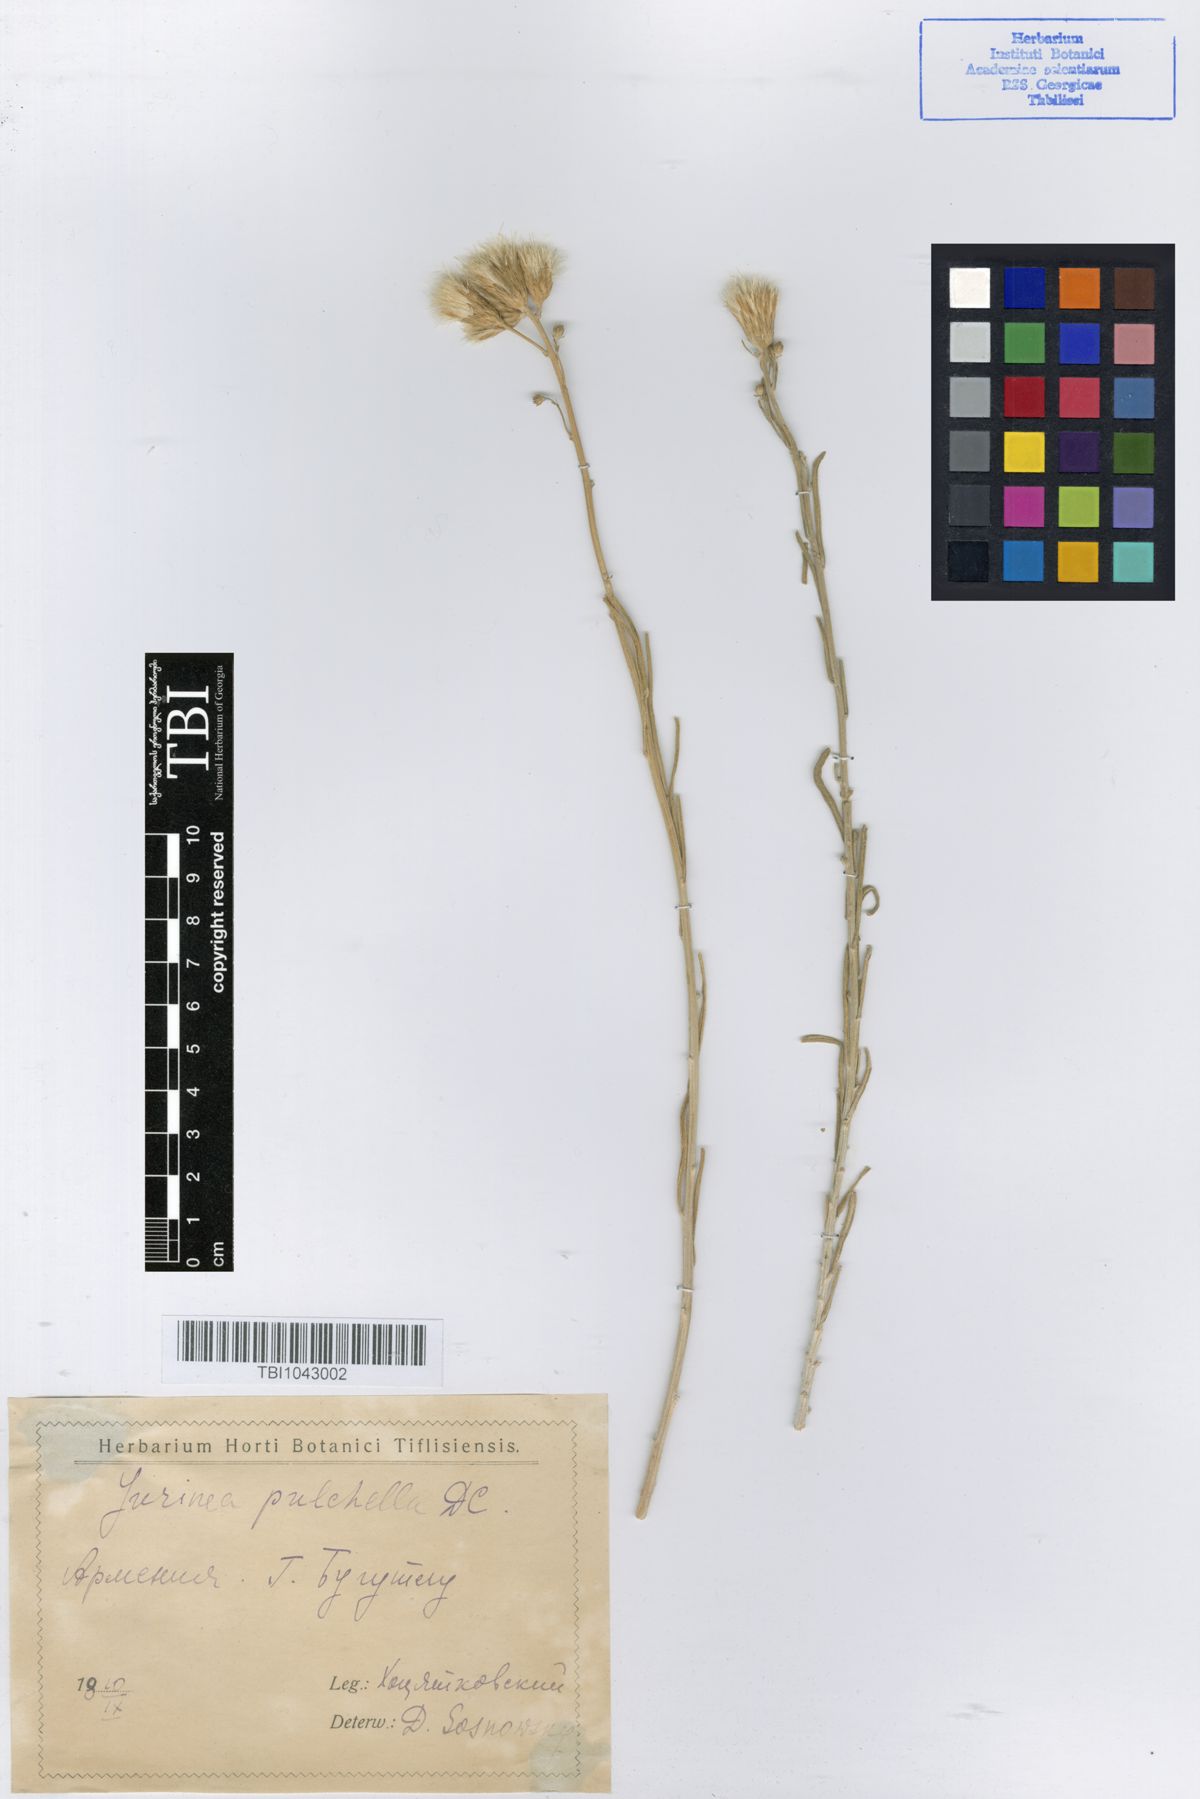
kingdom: Plantae
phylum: Tracheophyta
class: Magnoliopsida
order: Asterales
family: Asteraceae
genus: Jurinea
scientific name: Jurinea pulchella
